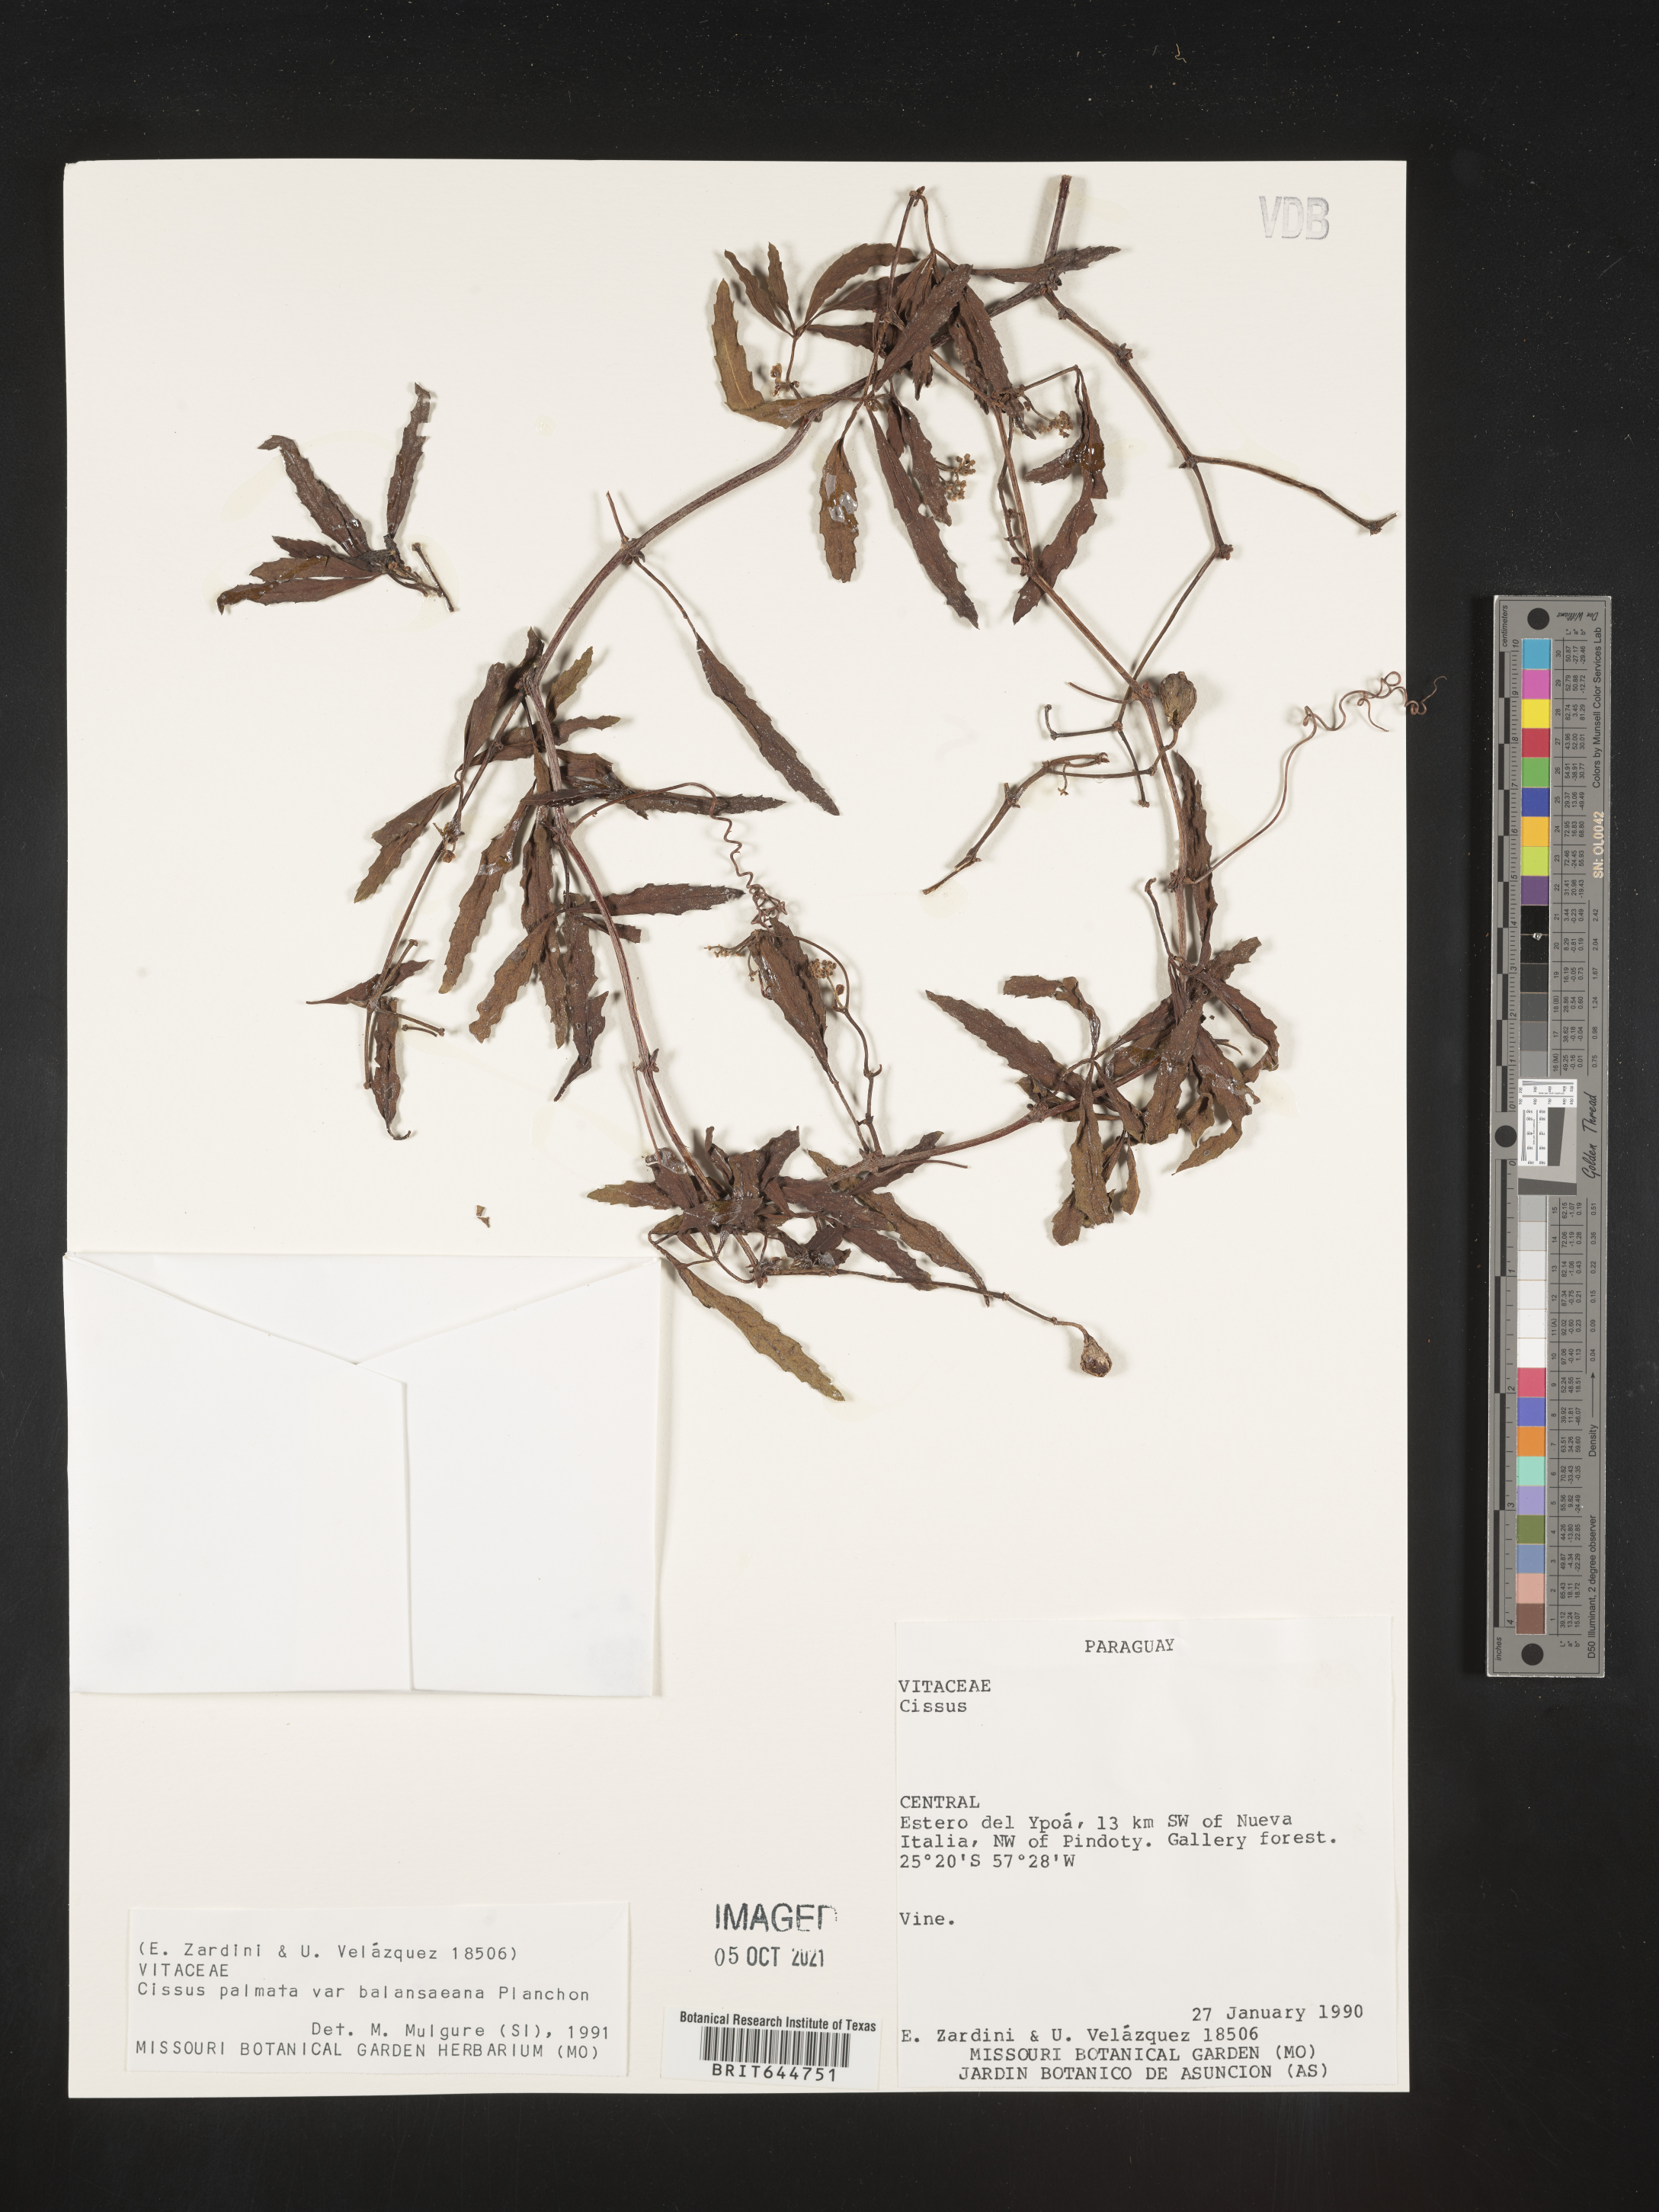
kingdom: Plantae
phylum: Tracheophyta
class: Magnoliopsida
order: Vitales
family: Vitaceae
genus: Cissus
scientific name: Cissus
